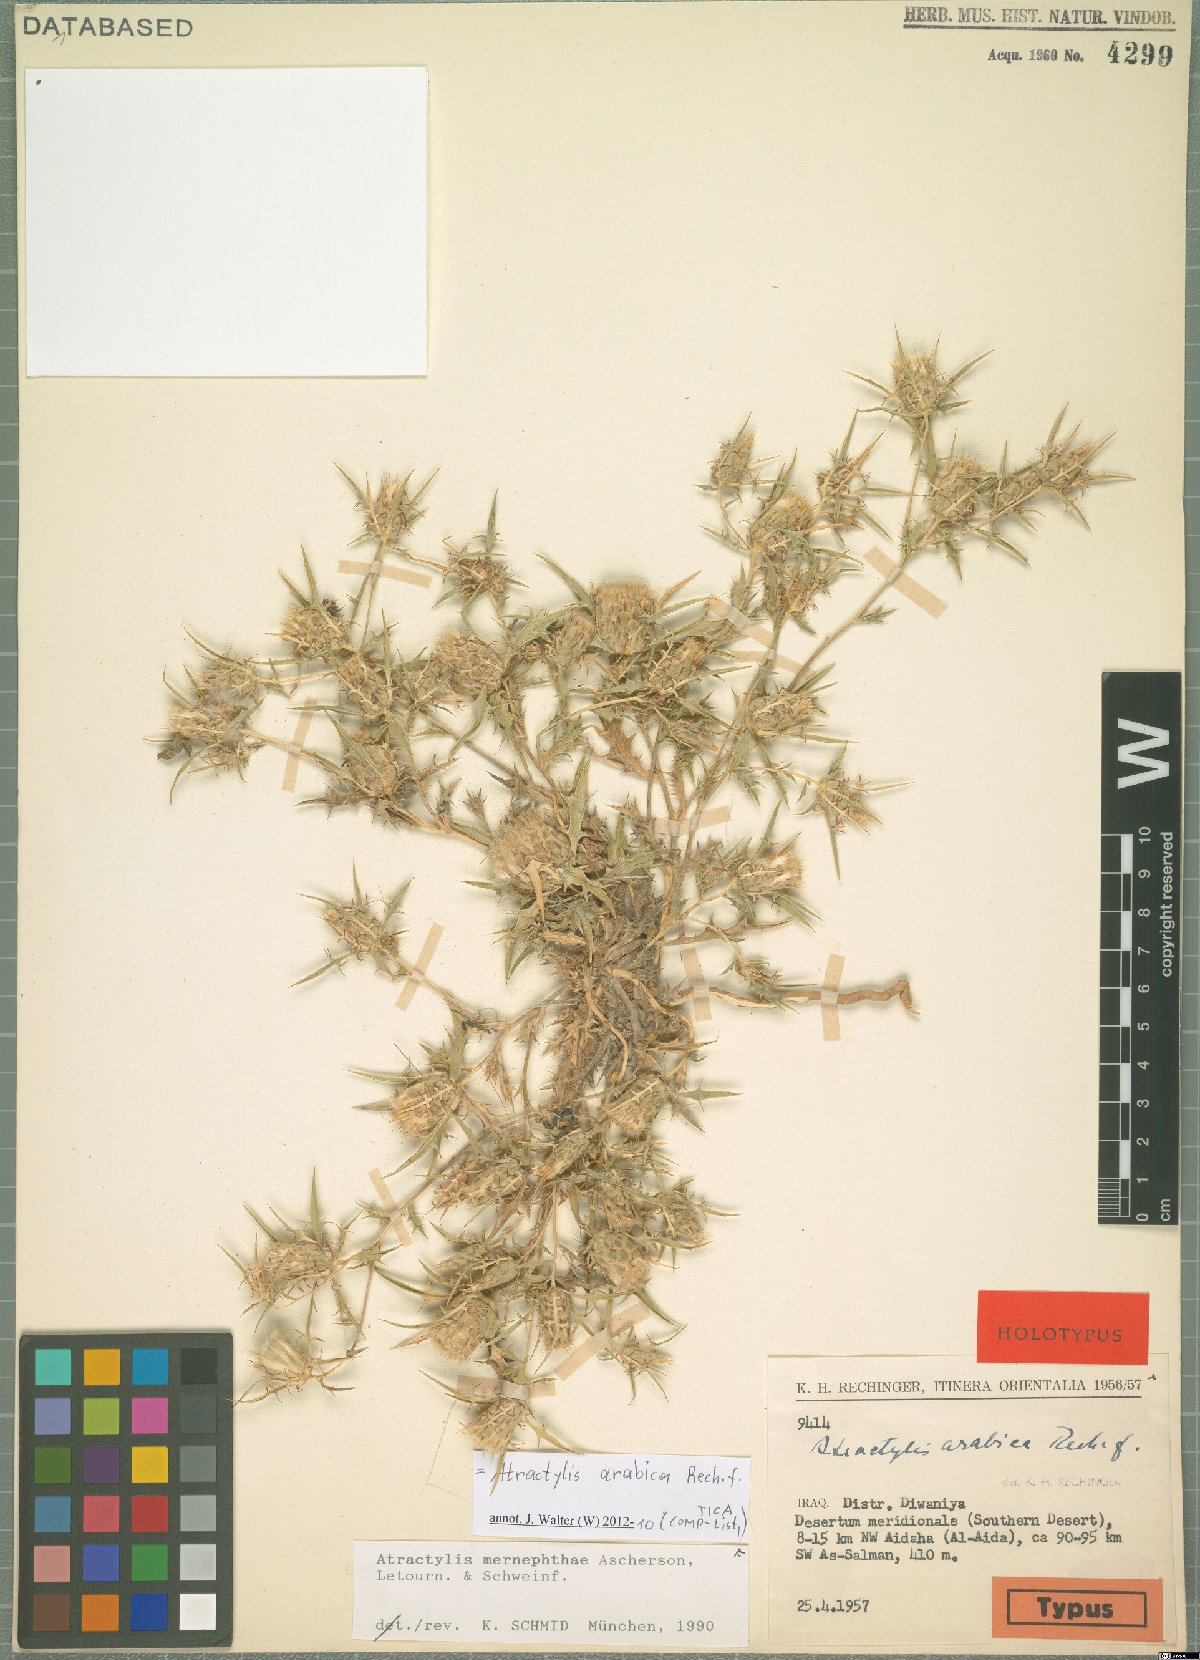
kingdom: Plantae
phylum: Tracheophyta
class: Magnoliopsida
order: Asterales
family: Asteraceae
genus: Atractylis
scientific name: Atractylis arabica
